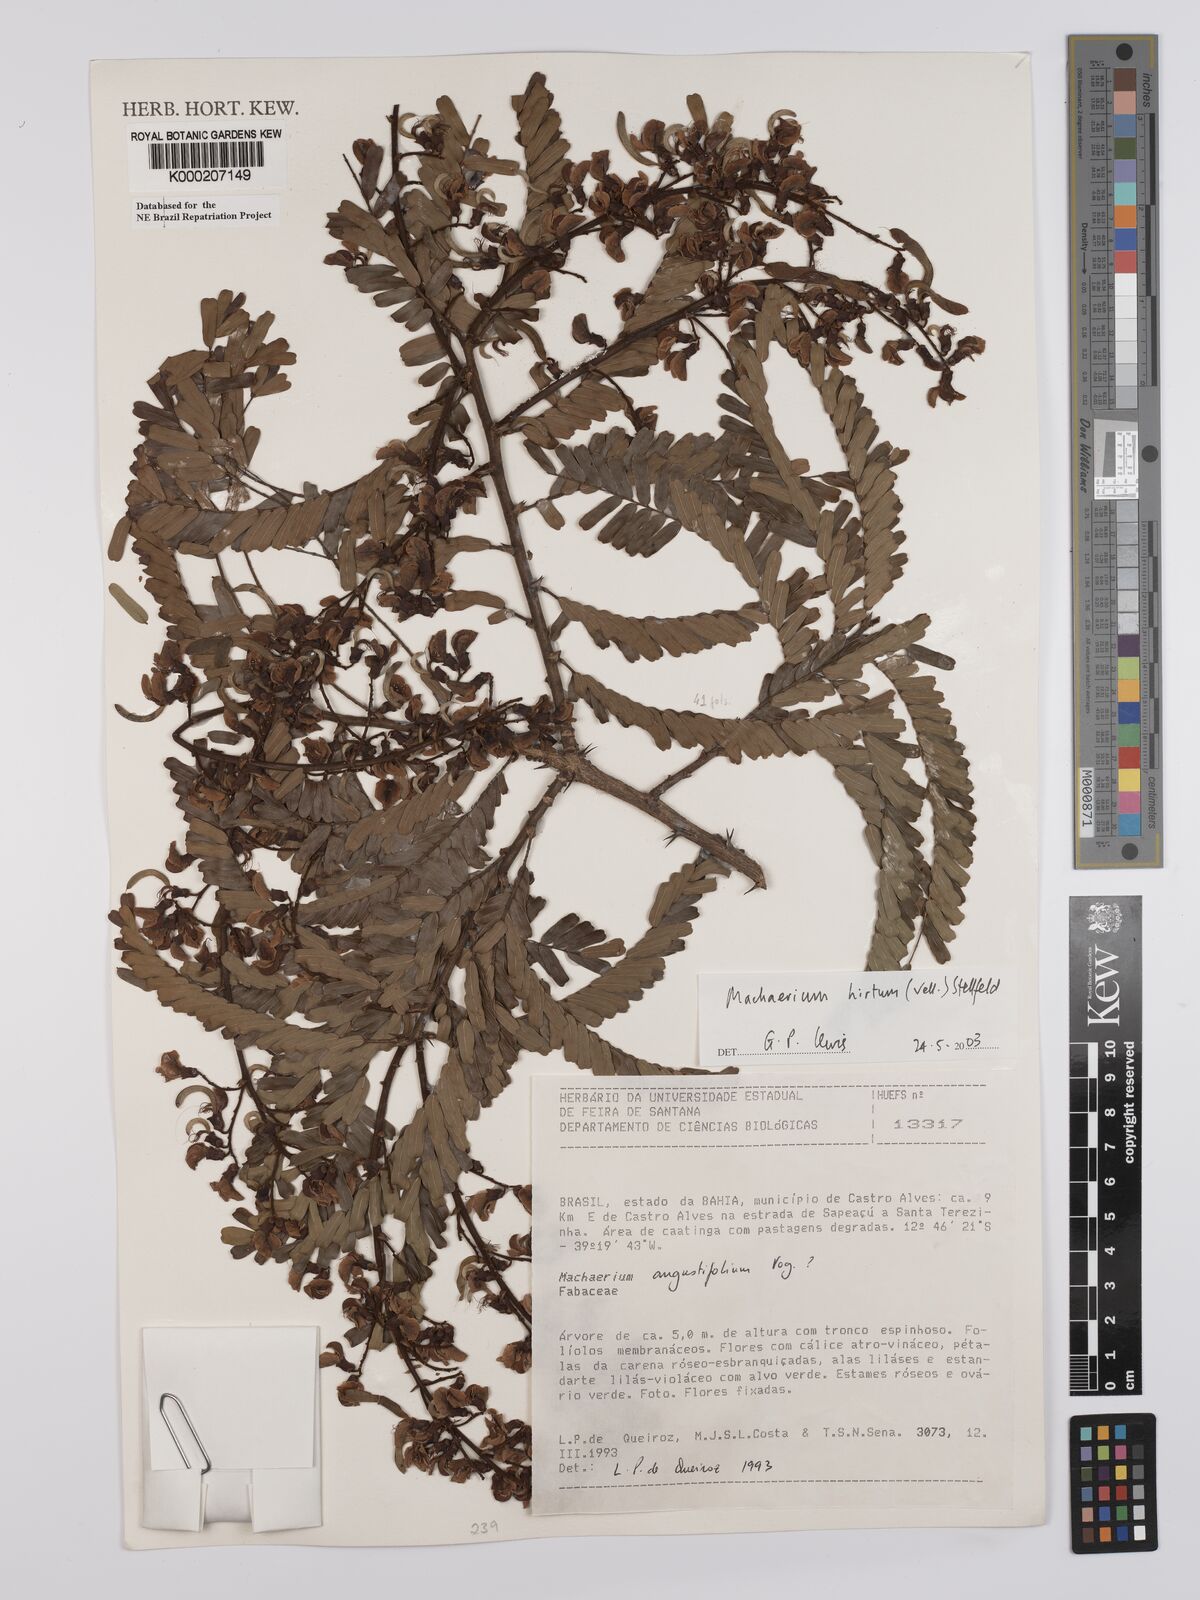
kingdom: Plantae
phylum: Tracheophyta
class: Magnoliopsida
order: Fabales
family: Fabaceae
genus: Machaerium
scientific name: Machaerium hirtum
